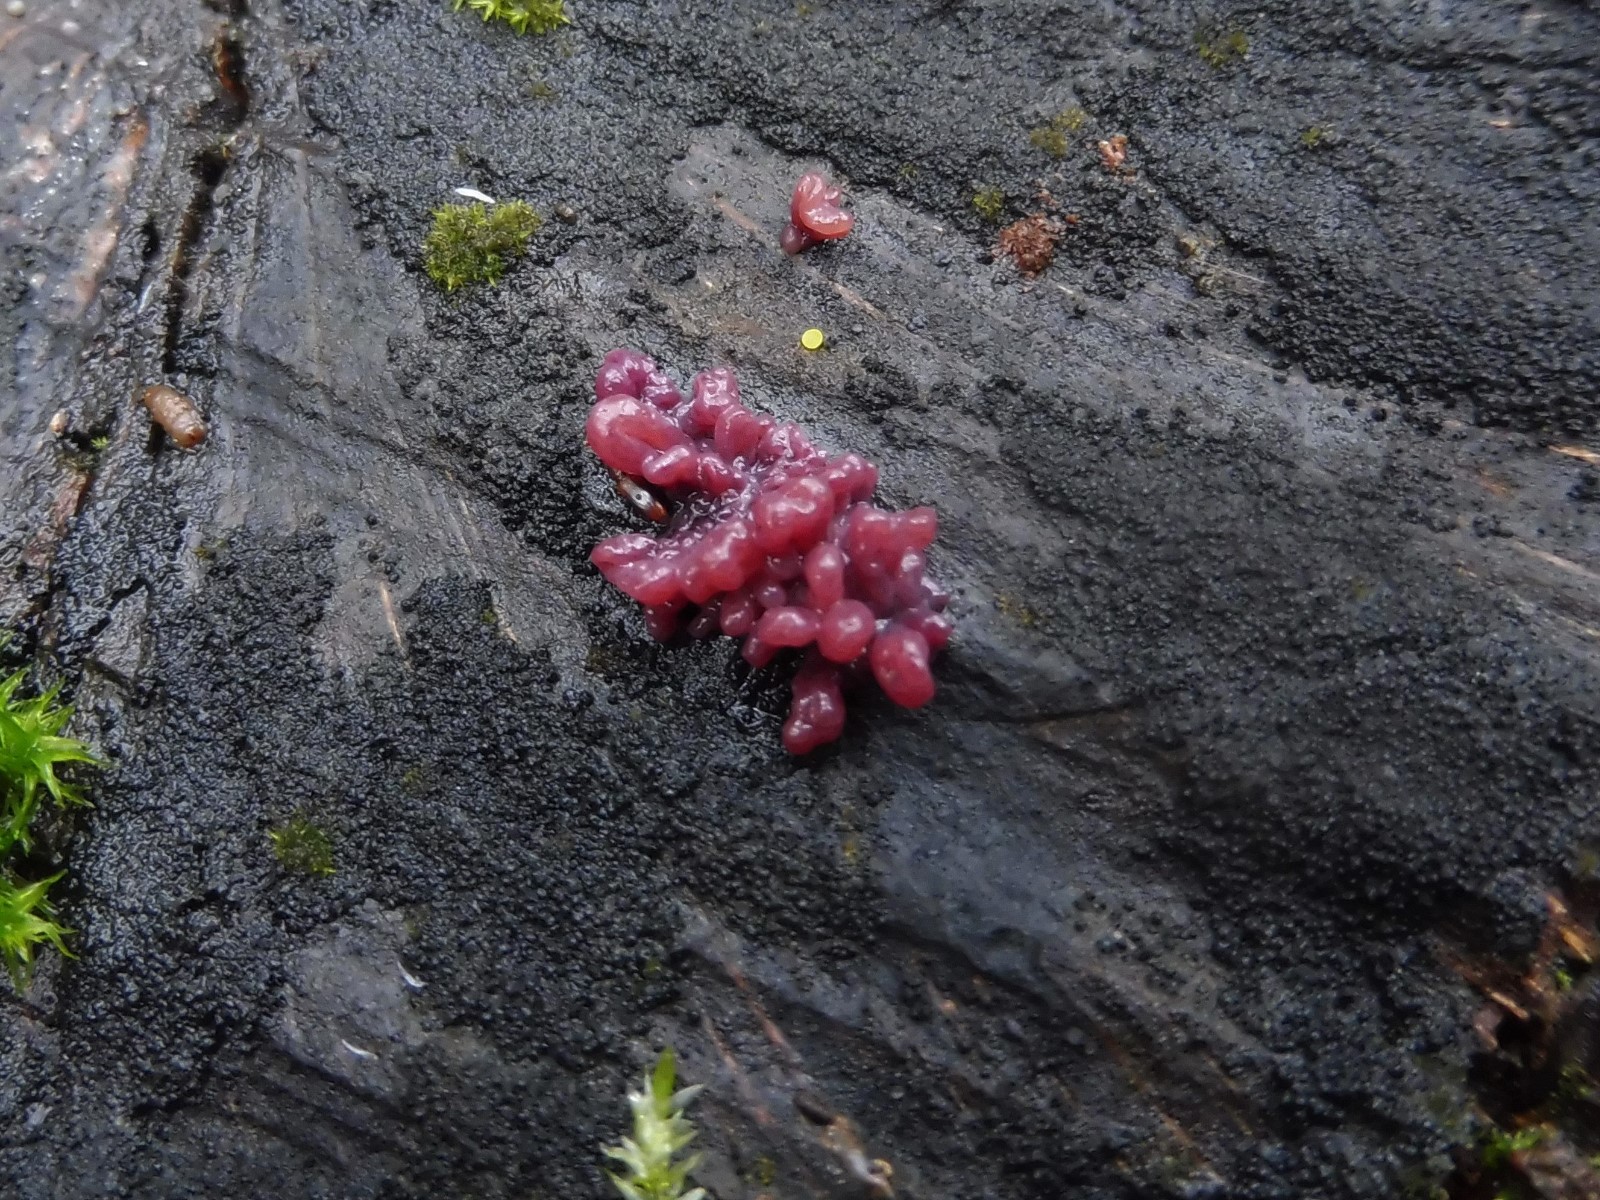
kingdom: Fungi
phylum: Ascomycota
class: Leotiomycetes
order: Helotiales
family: Gelatinodiscaceae
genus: Ascocoryne
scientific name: Ascocoryne sarcoides
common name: rødlilla sejskive
